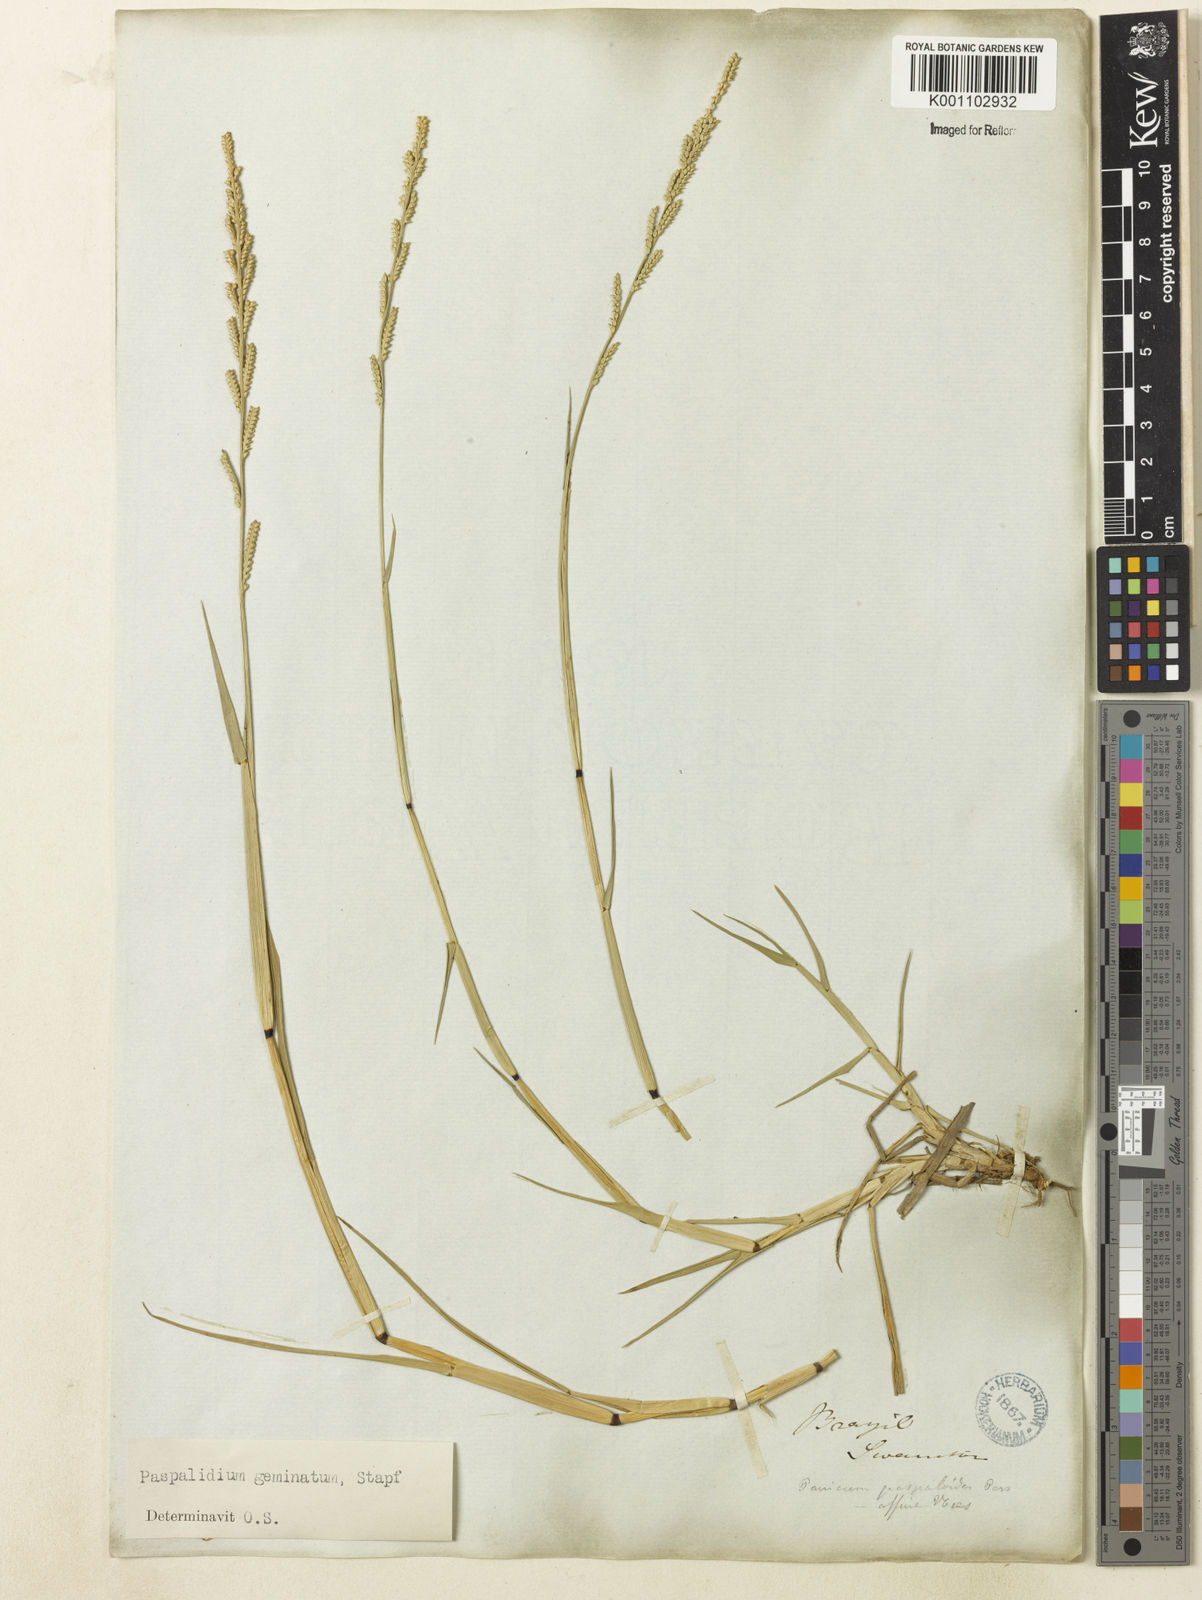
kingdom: Plantae
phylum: Tracheophyta
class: Liliopsida
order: Poales
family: Poaceae
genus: Setaria
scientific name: Setaria geminata
